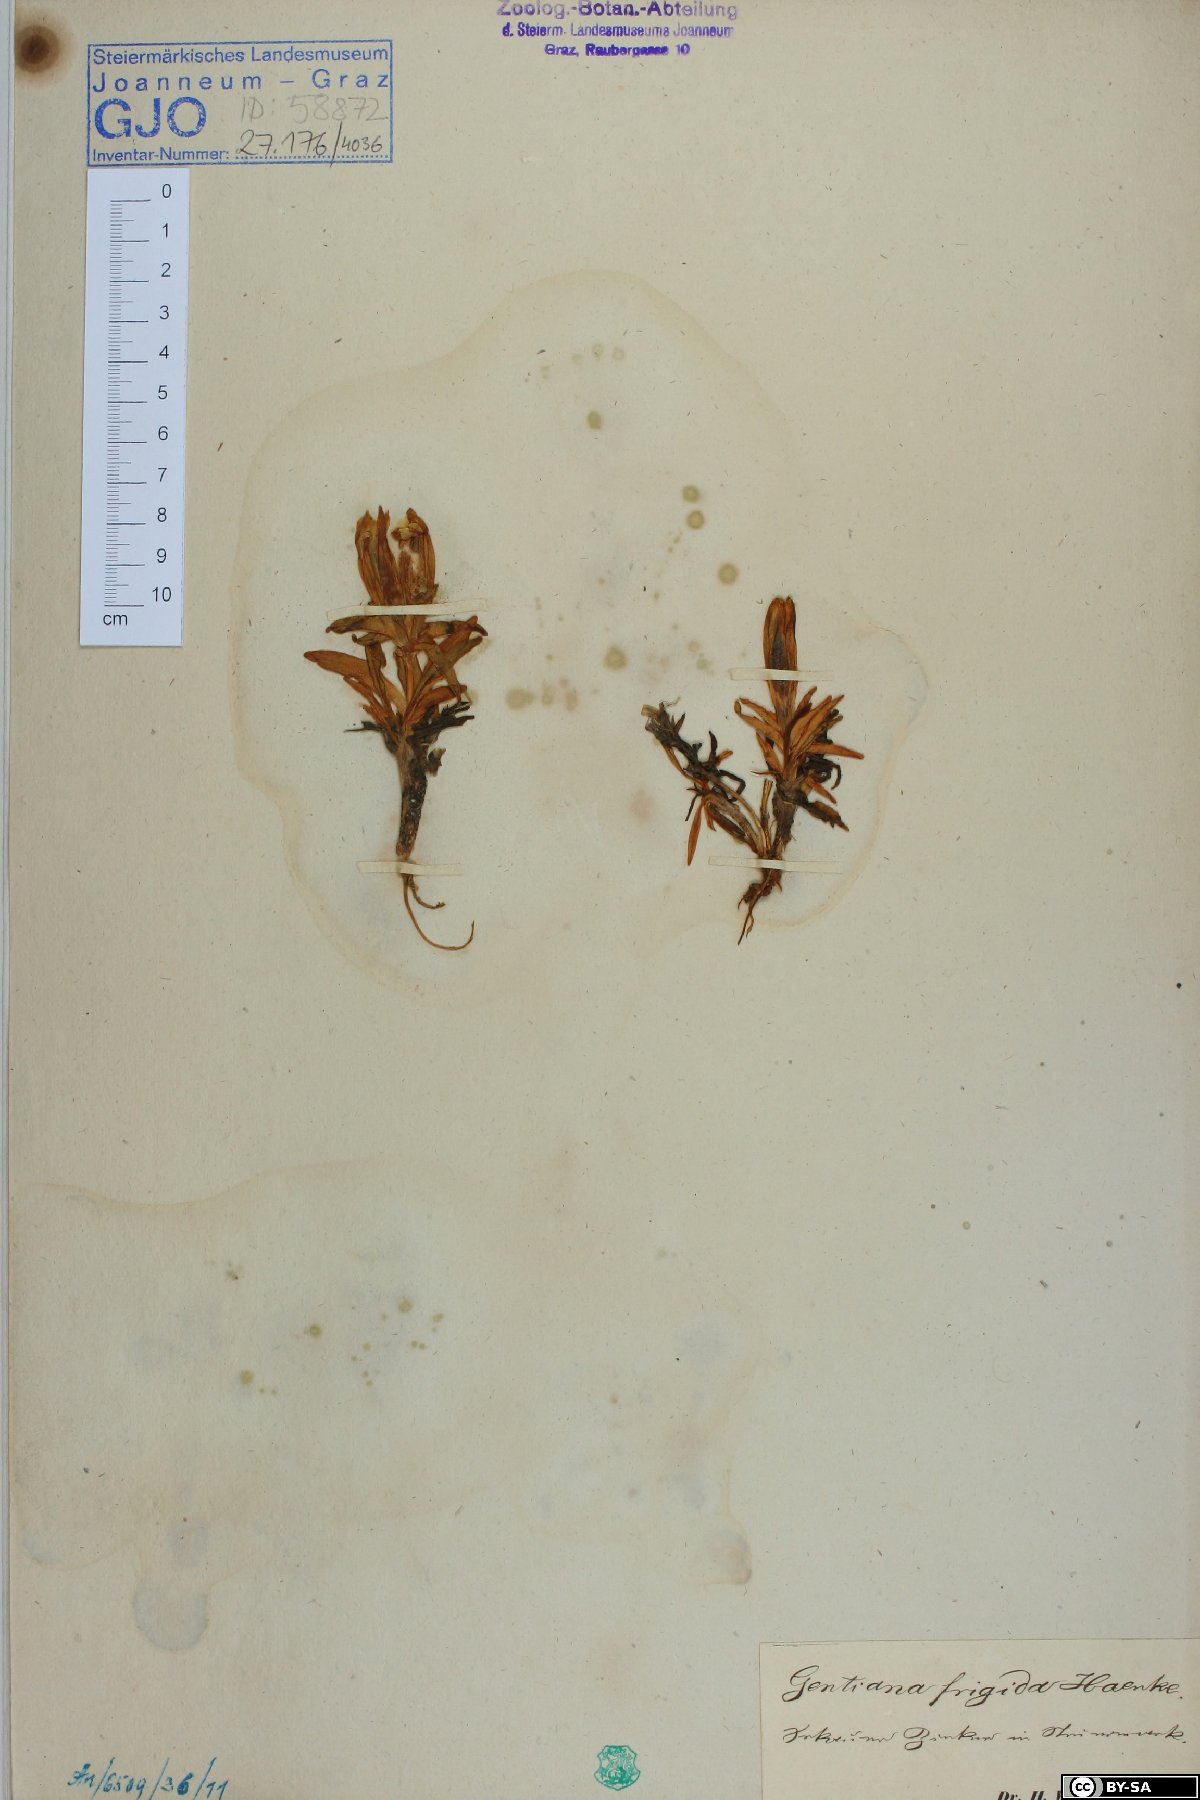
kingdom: Plantae
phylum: Tracheophyta
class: Magnoliopsida
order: Gentianales
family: Gentianaceae
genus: Gentiana
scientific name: Gentiana frigida
